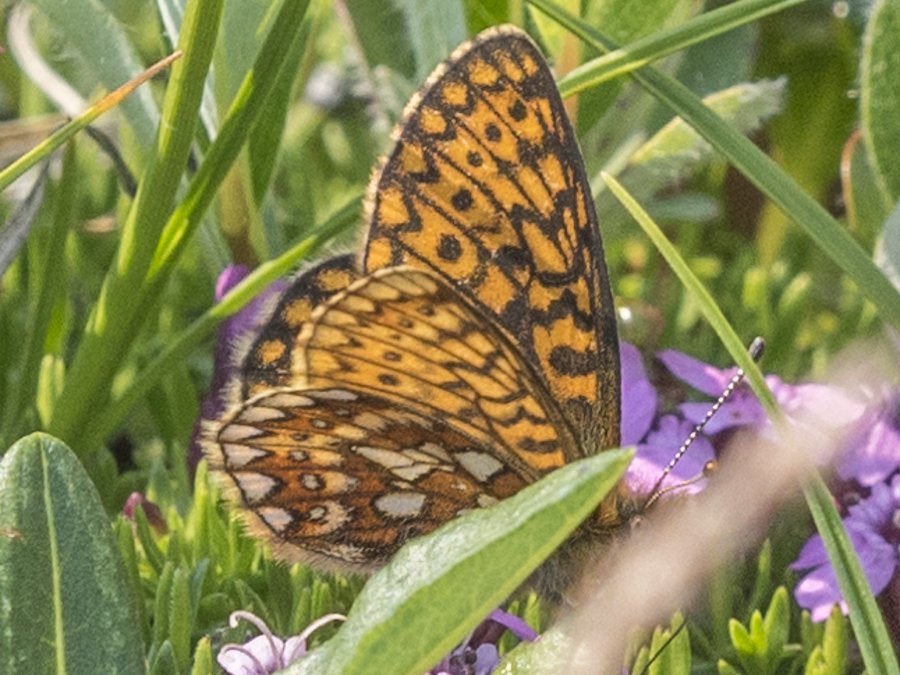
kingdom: Animalia
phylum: Arthropoda
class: Insecta
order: Lepidoptera
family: Nymphalidae
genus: Boloria
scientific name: Boloria eunomia
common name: Bog Fritillary
